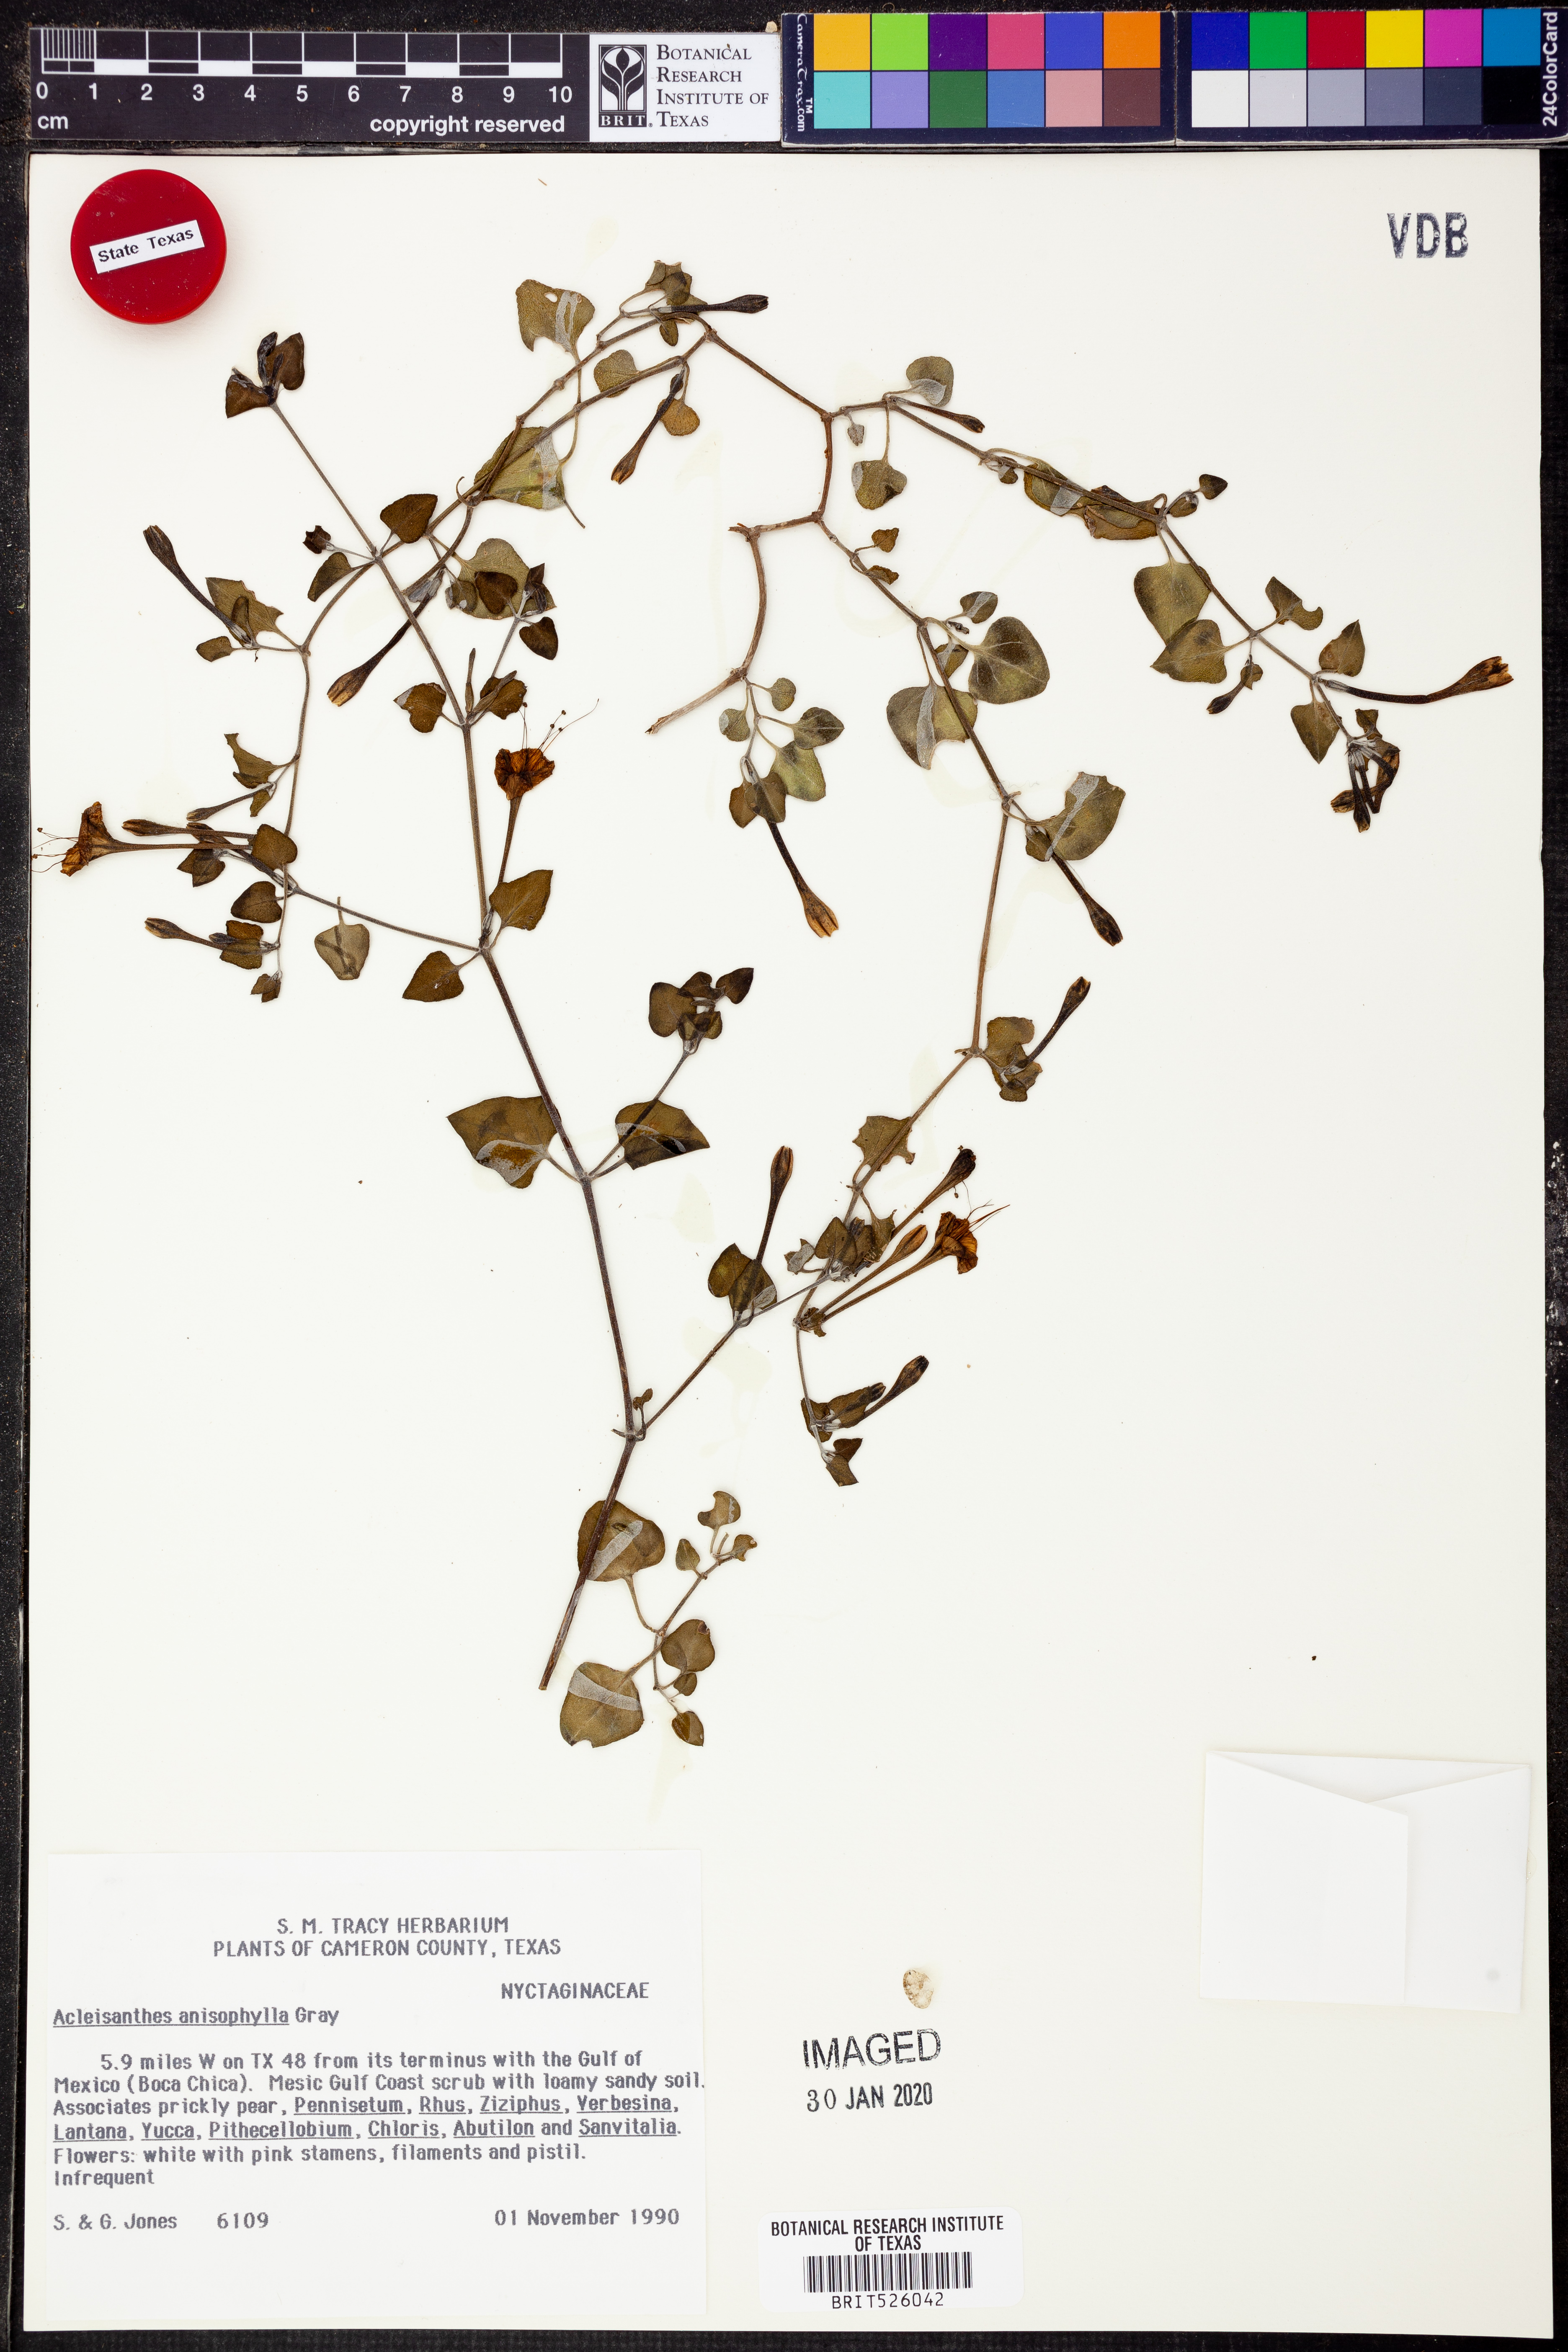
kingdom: Plantae
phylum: Tracheophyta
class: Magnoliopsida
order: Caryophyllales
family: Nyctaginaceae
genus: Acleisanthes
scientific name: Acleisanthes anisophylla
